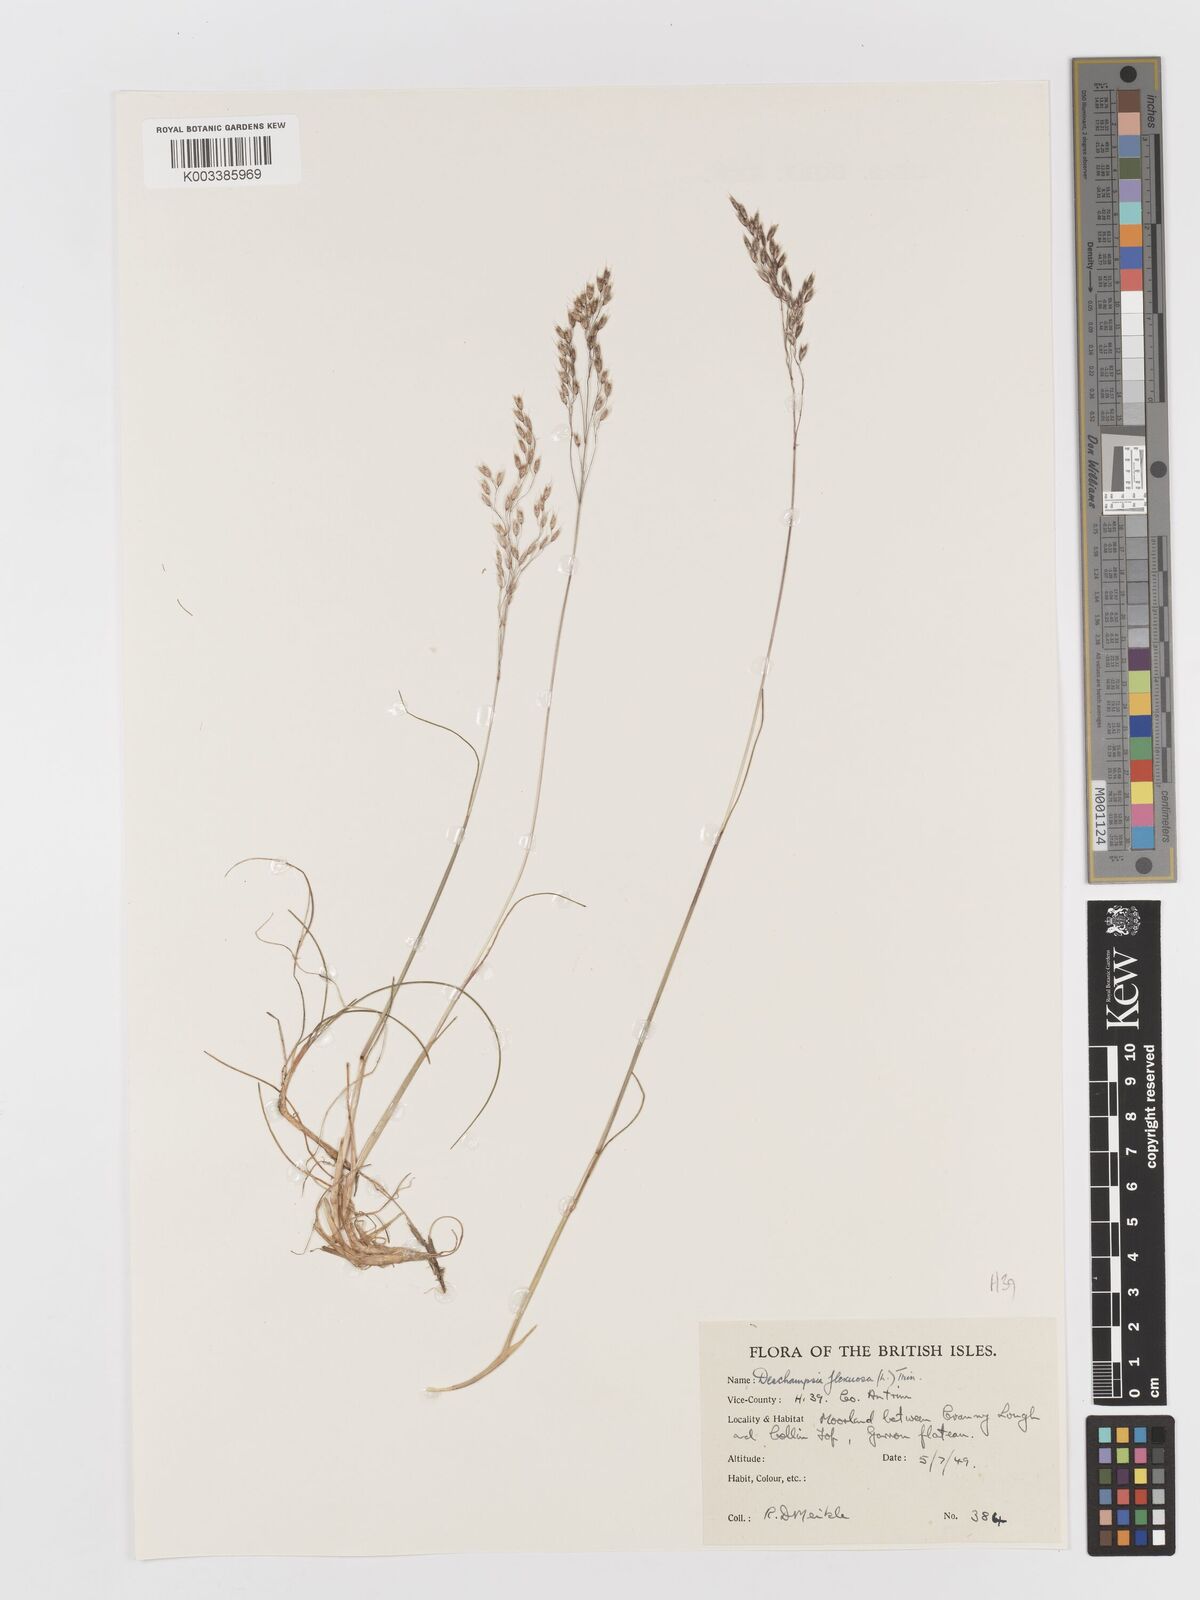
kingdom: Plantae
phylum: Tracheophyta
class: Liliopsida
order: Poales
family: Poaceae
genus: Avenella
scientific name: Avenella flexuosa
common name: Wavy hairgrass
